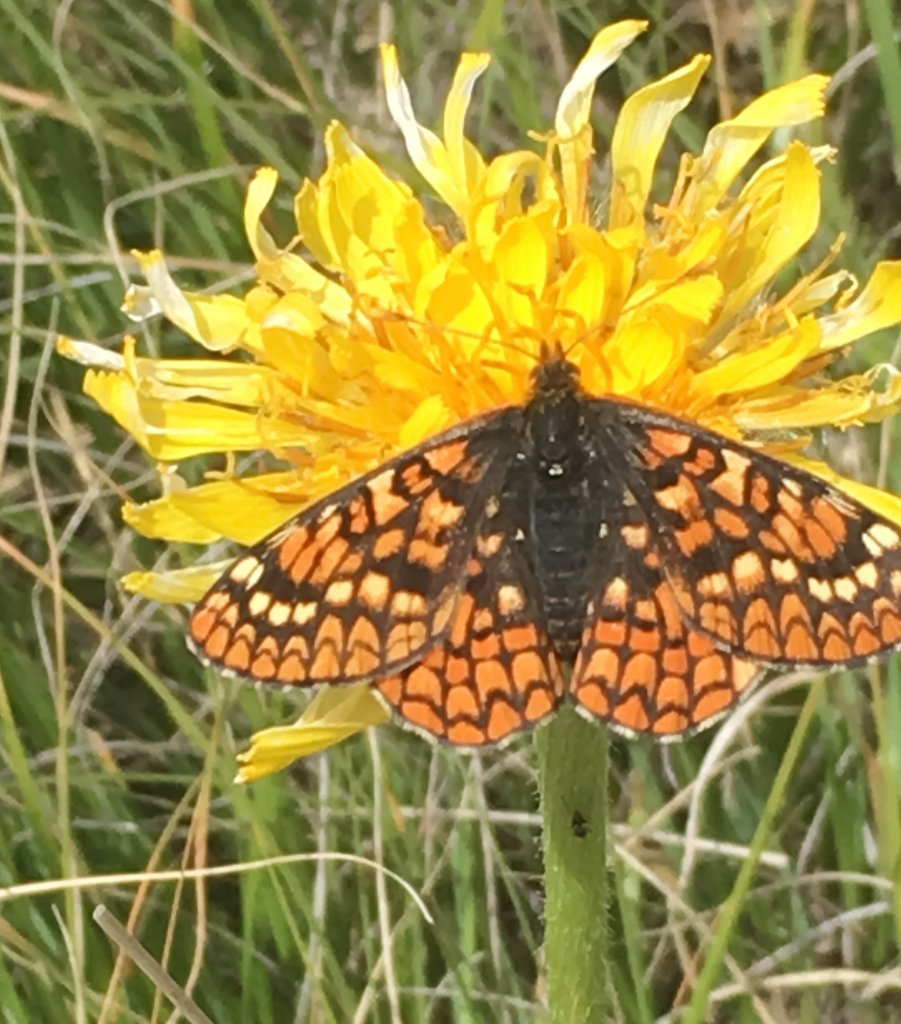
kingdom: Animalia
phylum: Arthropoda
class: Insecta
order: Lepidoptera
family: Nymphalidae
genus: Occidryas
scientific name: Occidryas anicia
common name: Anicia Checkerspot
